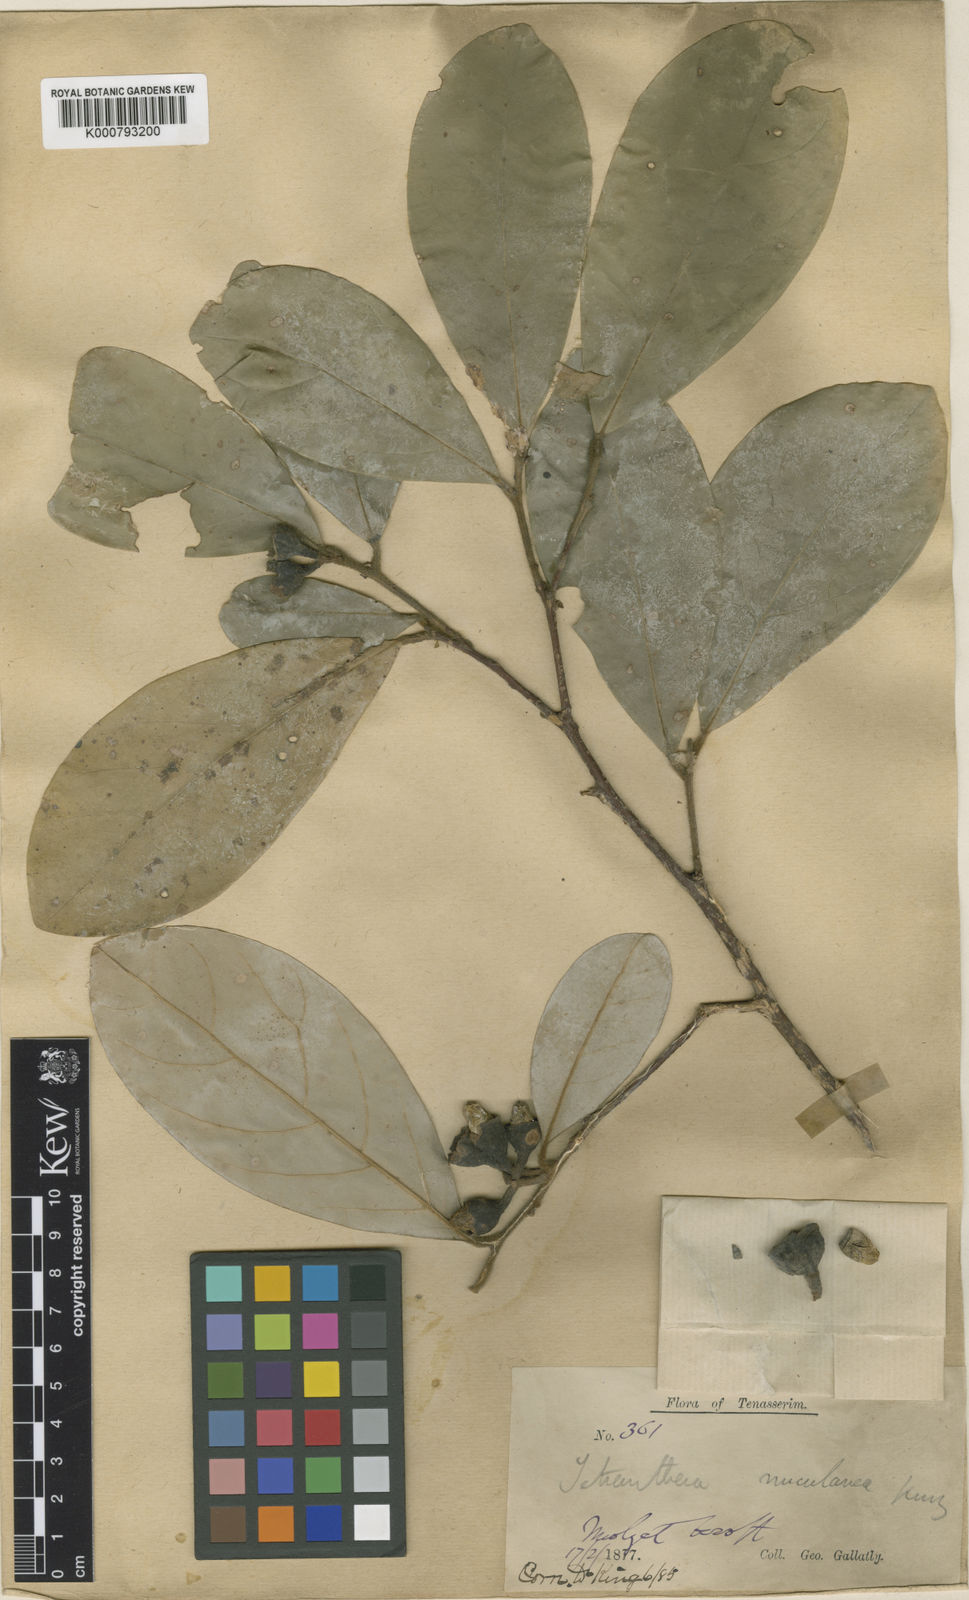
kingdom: Plantae
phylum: Tracheophyta
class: Magnoliopsida
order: Laurales
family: Lauraceae
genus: Litsea
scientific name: Litsea nuculanea
